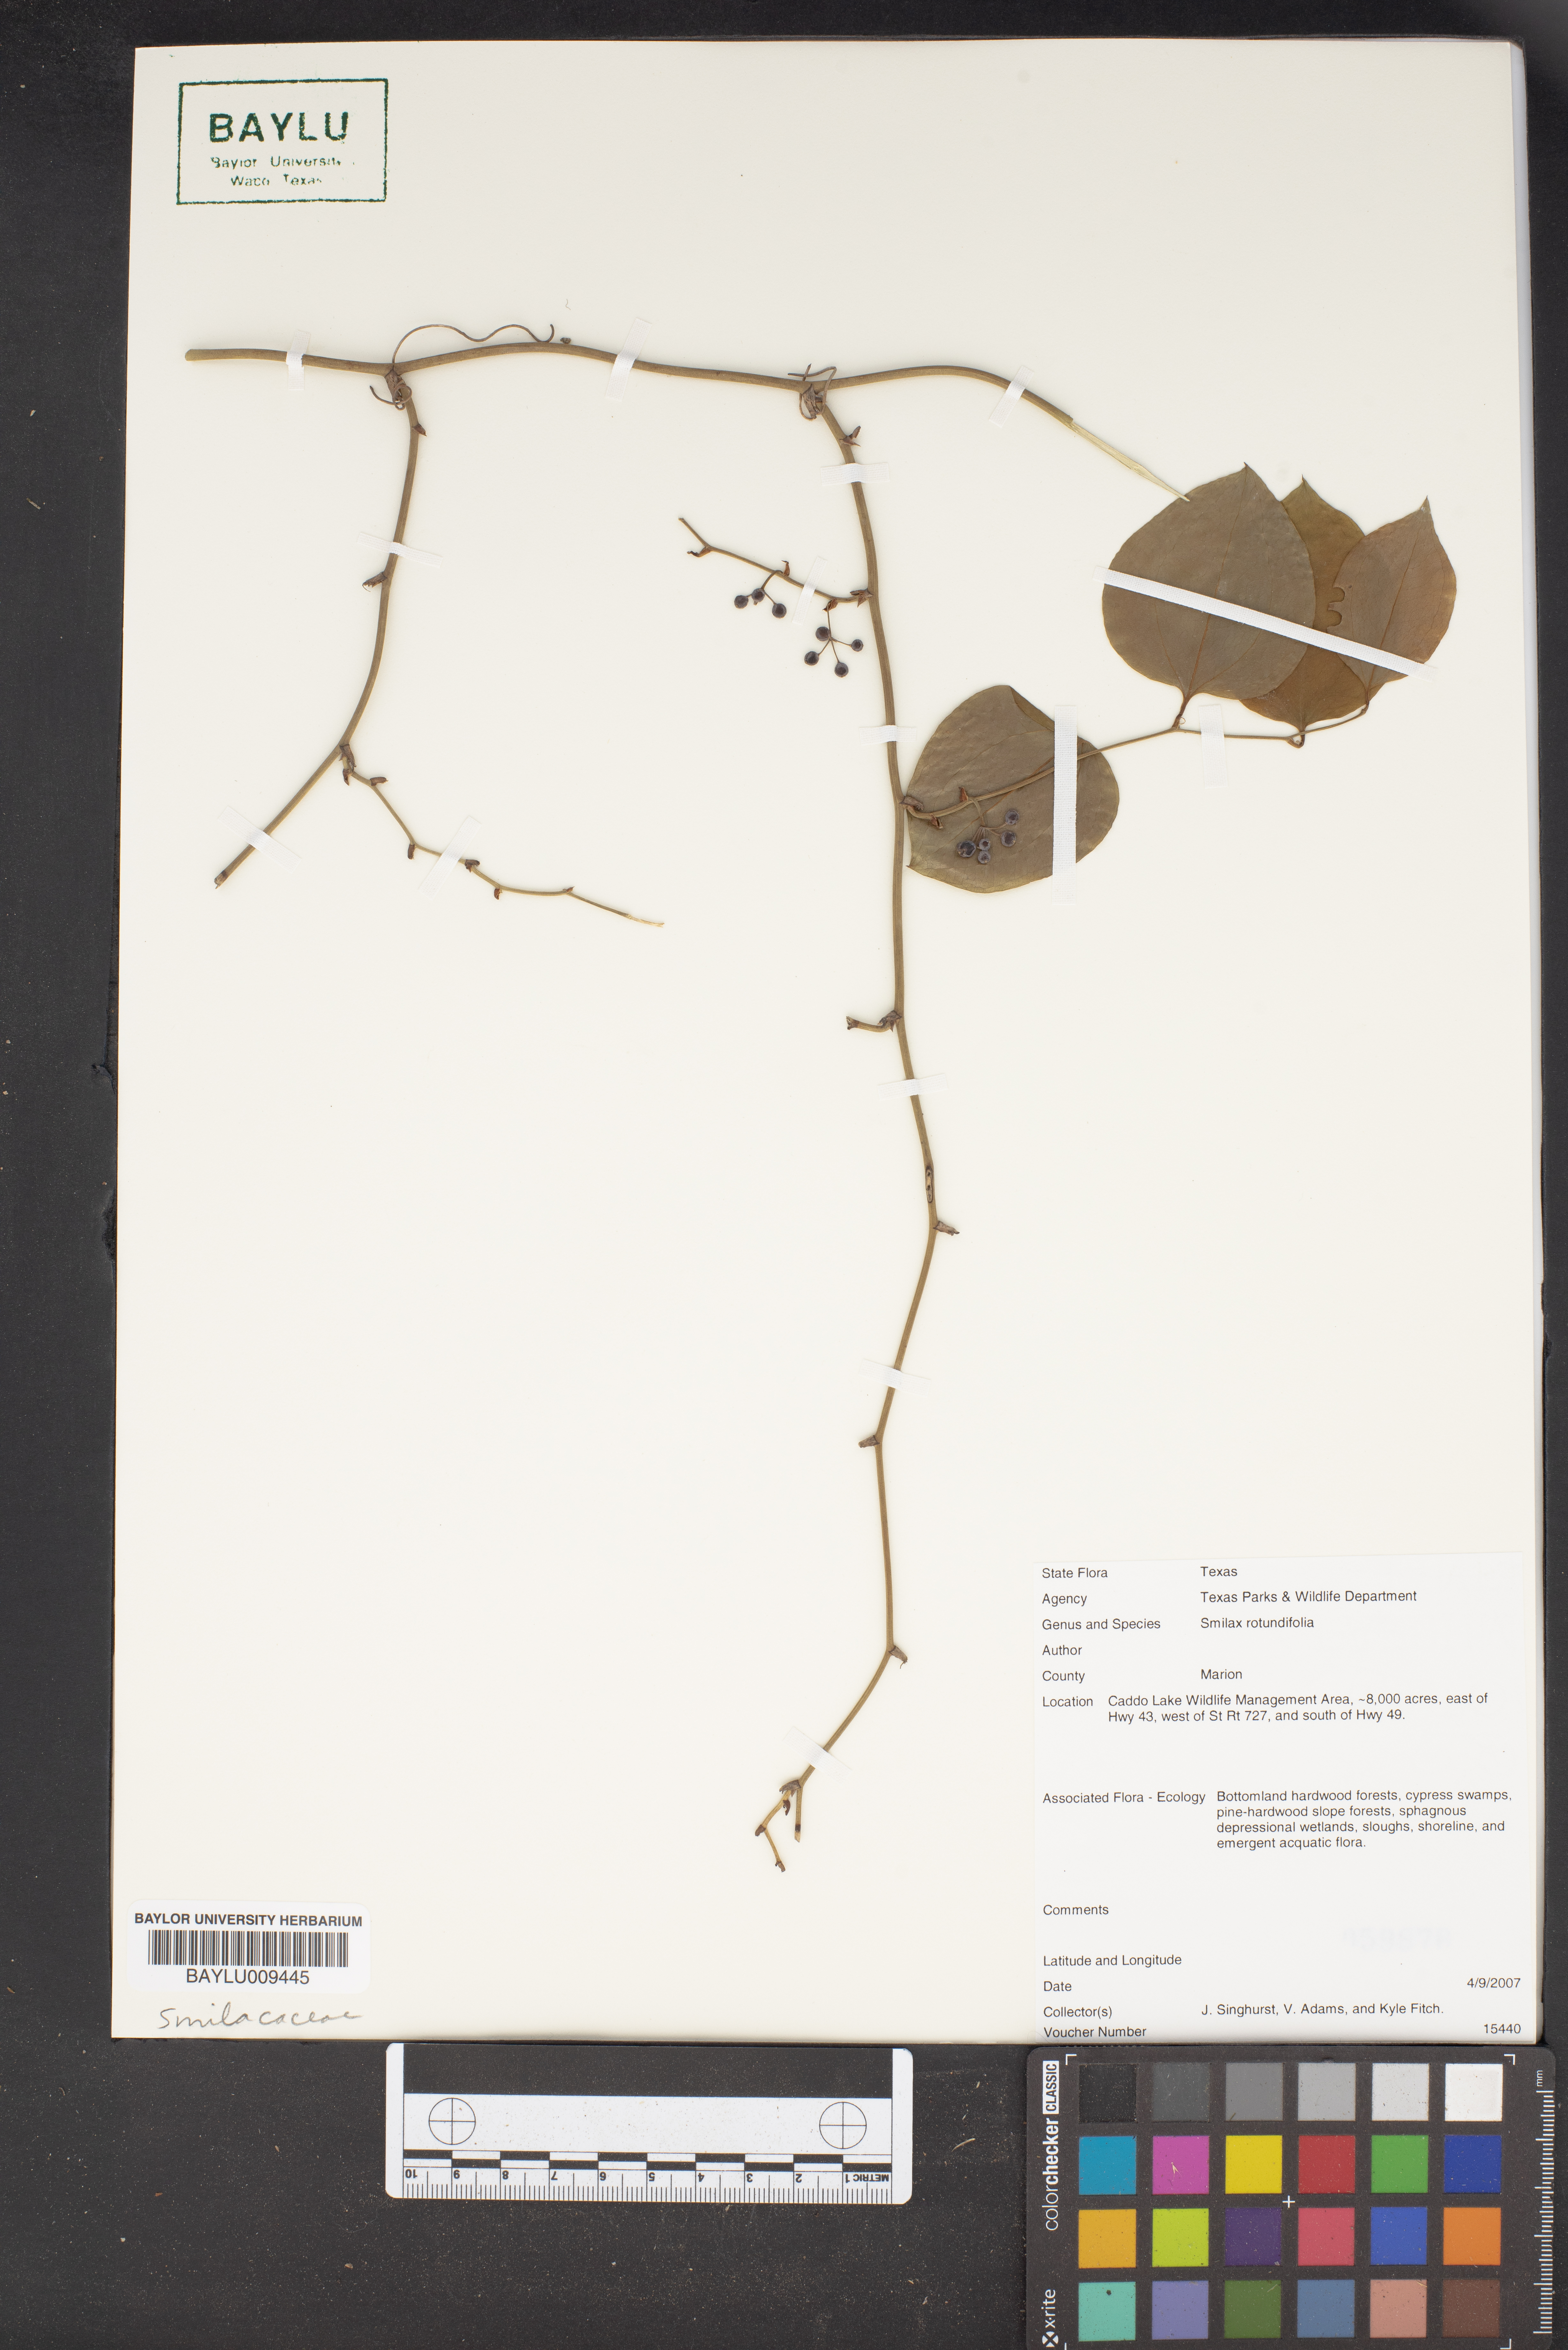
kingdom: Plantae
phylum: Tracheophyta
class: Liliopsida
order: Liliales
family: Smilacaceae
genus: Smilax
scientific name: Smilax rotundifolia
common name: Bullbriar
